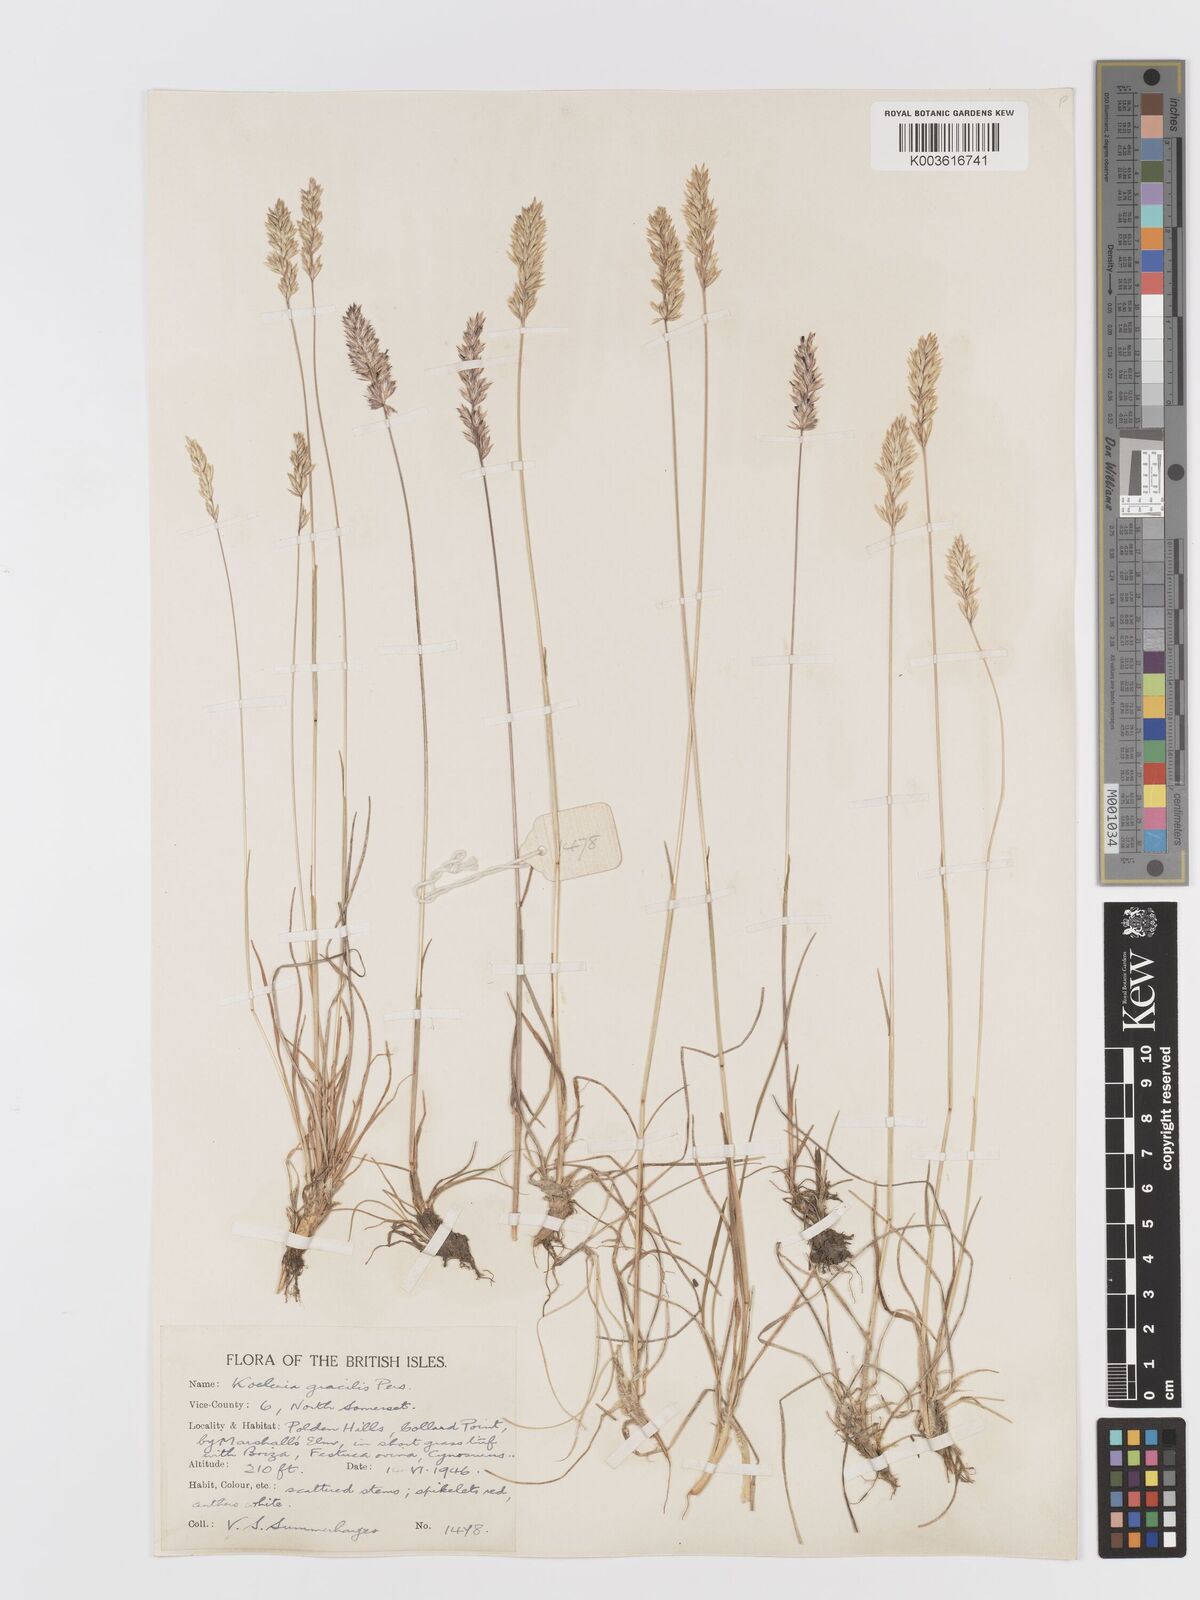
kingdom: Plantae
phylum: Tracheophyta
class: Liliopsida
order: Poales
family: Poaceae
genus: Koeleria
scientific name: Koeleria
